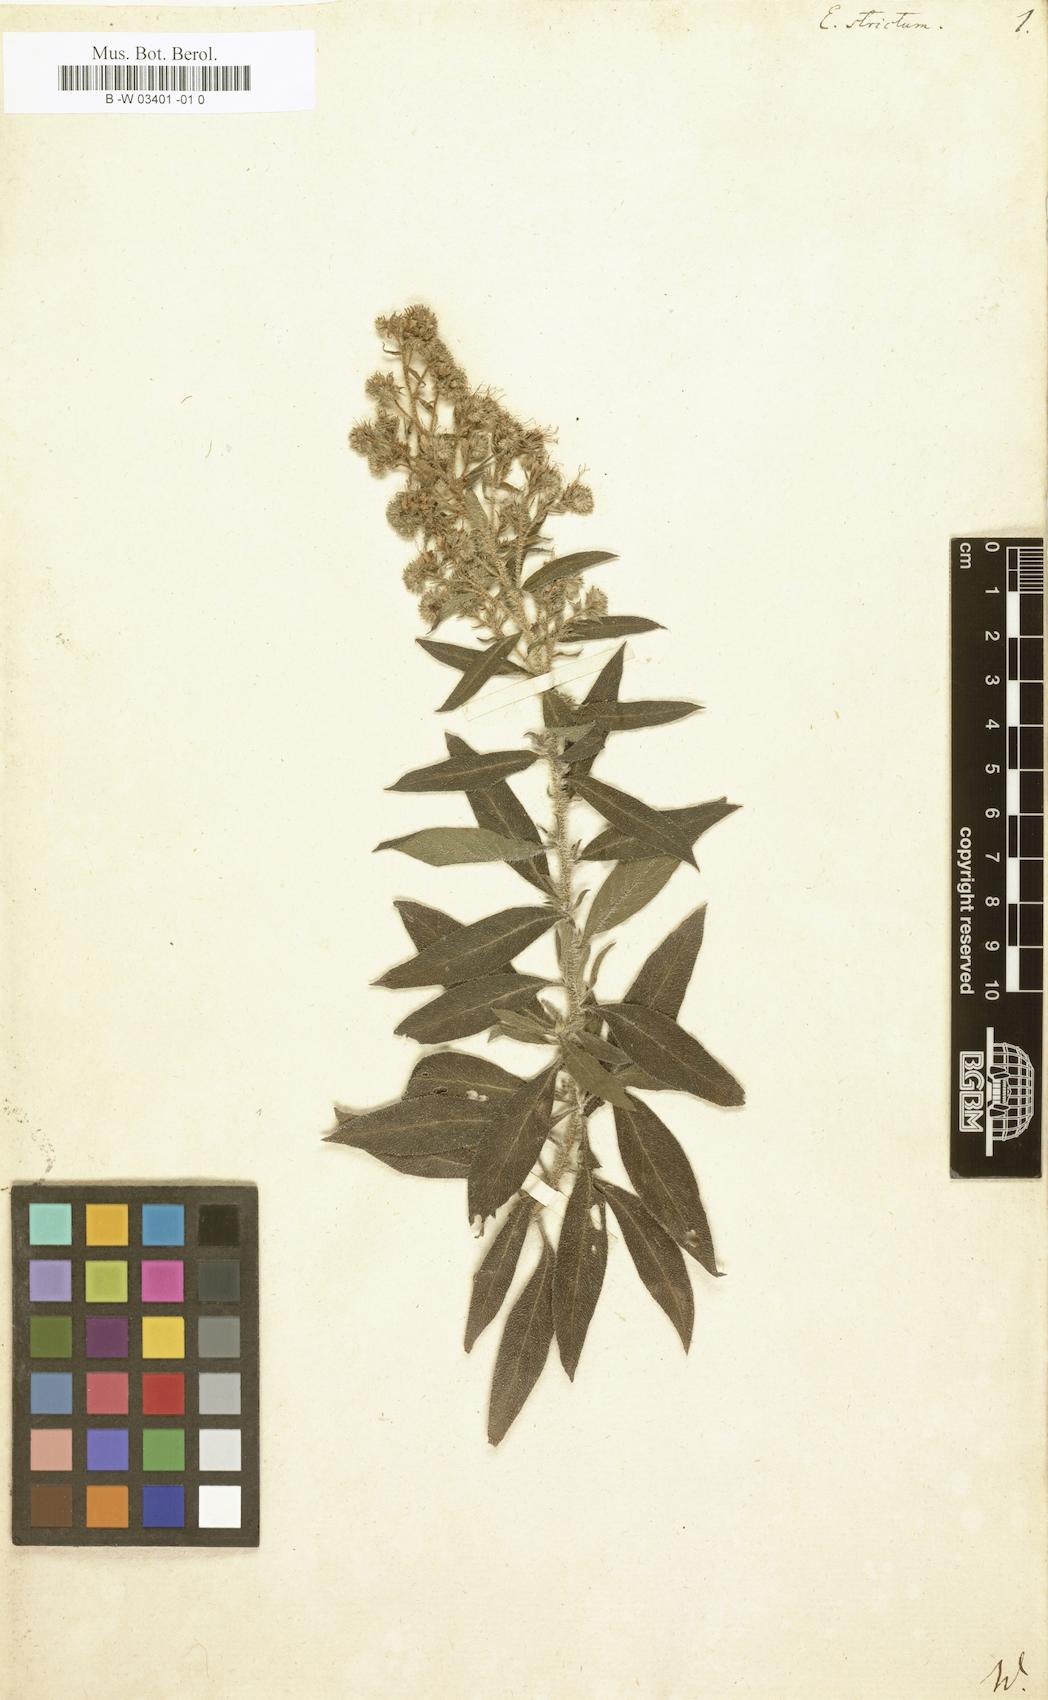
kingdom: Plantae
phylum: Tracheophyta
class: Magnoliopsida
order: Boraginales
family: Boraginaceae
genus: Echium
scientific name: Echium strictum
